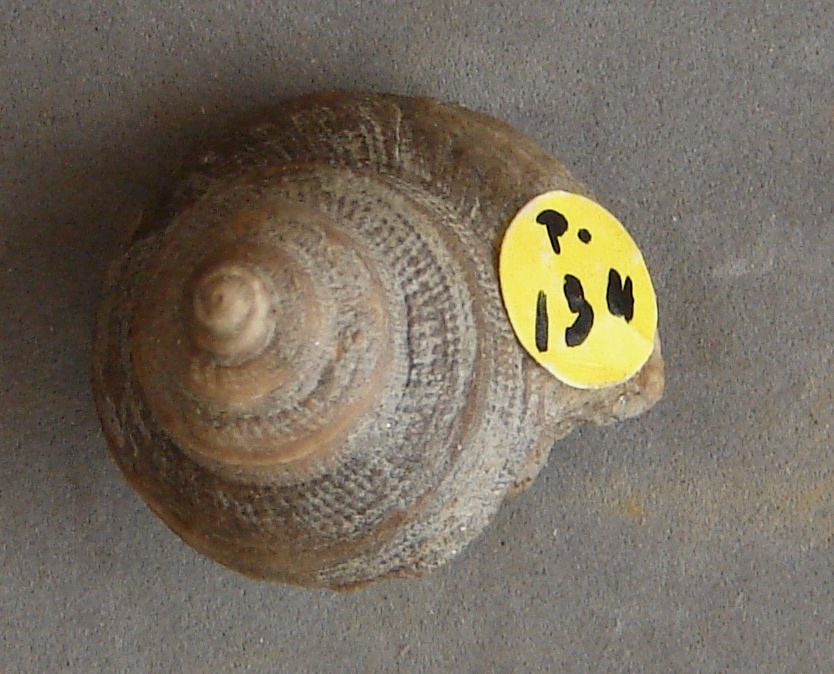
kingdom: Animalia
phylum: Mollusca
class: Gastropoda
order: Pleurotomariida
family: Pleurotomariidae
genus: Bathrotomaria
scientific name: Bathrotomaria Pleurotomaria subreticulata
